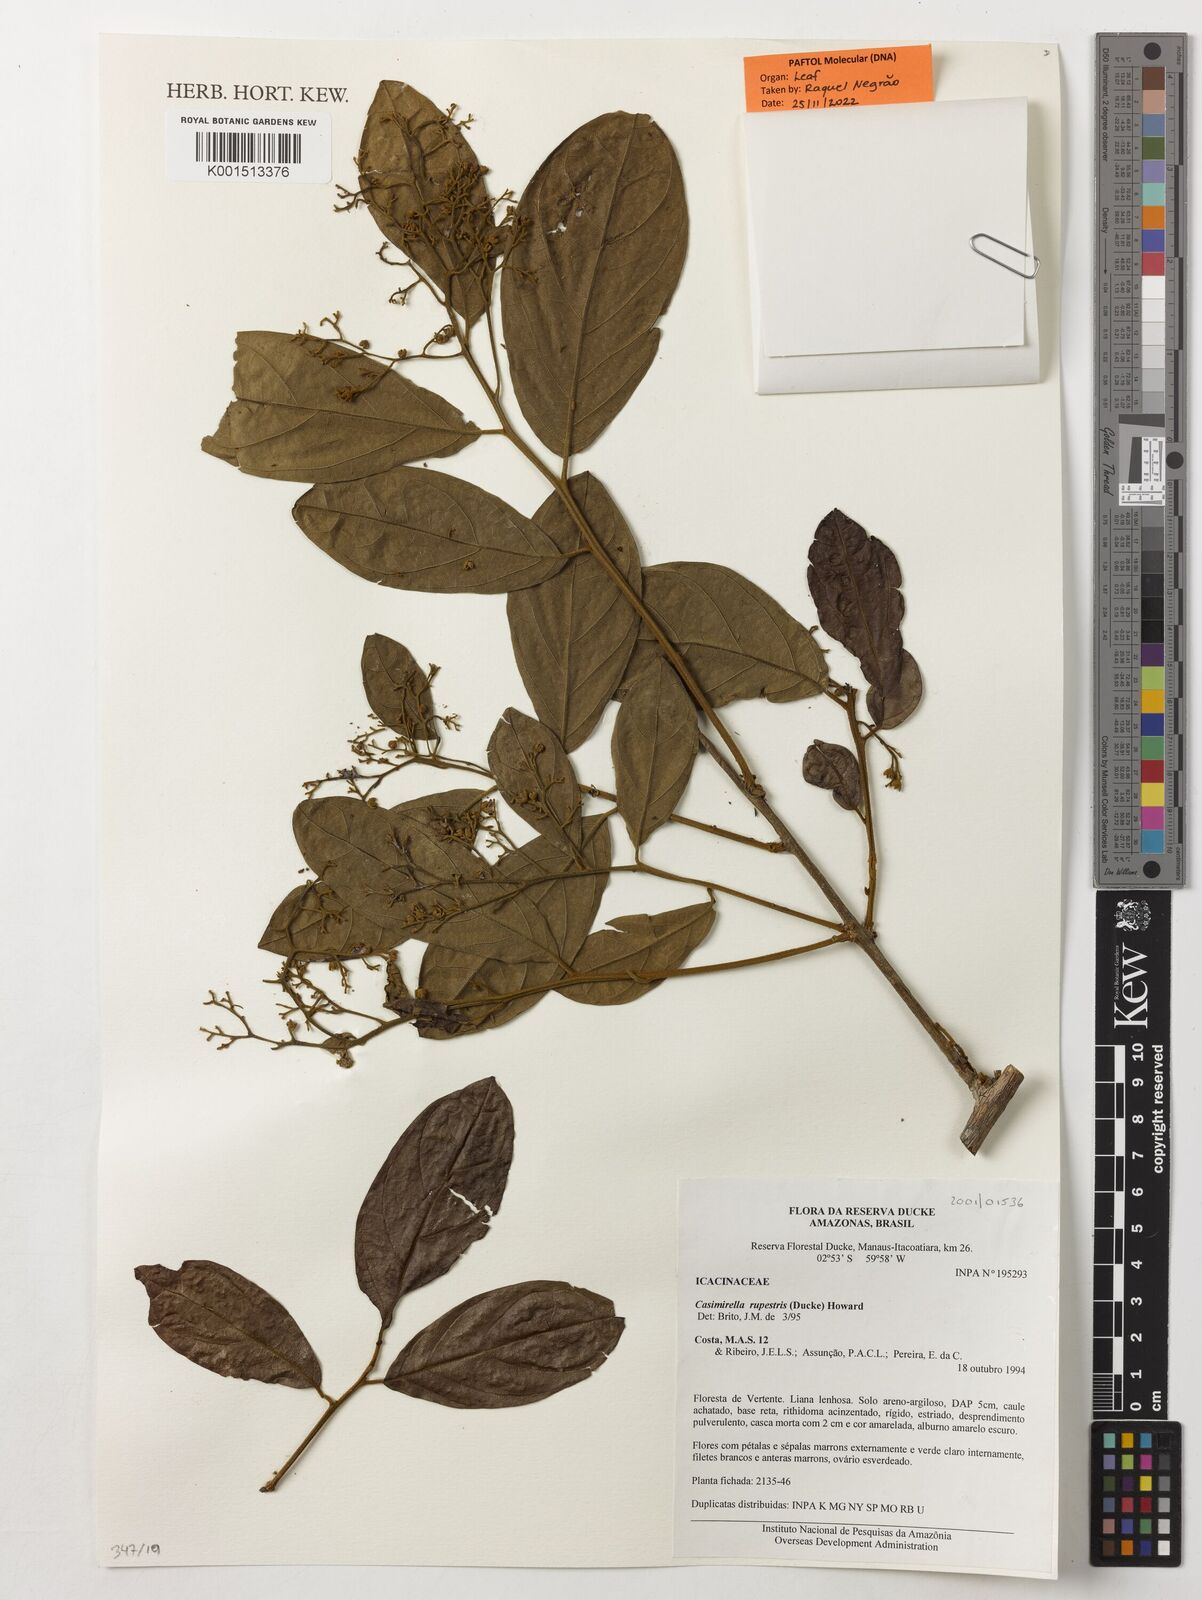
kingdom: Plantae
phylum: Tracheophyta
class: Magnoliopsida
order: Icacinales
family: Icacinaceae
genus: Casimirella
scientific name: Casimirella rupestris
